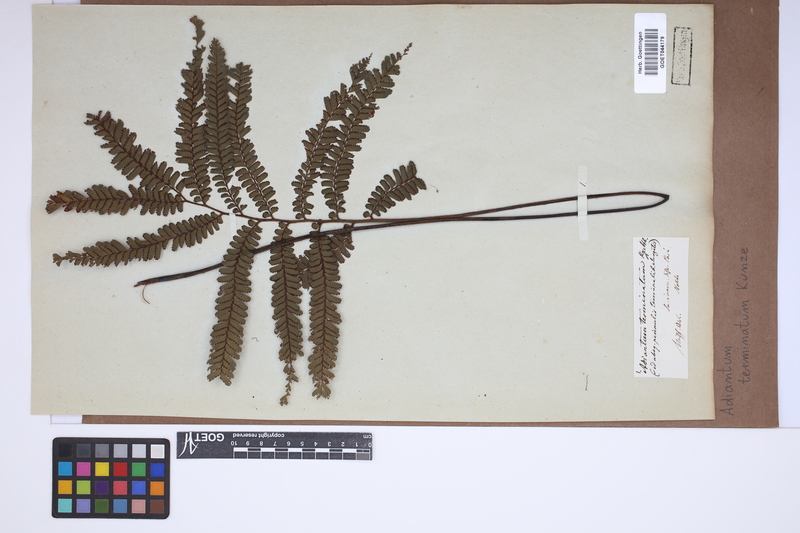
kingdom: Plantae
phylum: Tracheophyta
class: Polypodiopsida
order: Polypodiales
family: Pteridaceae
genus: Adiantum
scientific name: Adiantum terminatum
